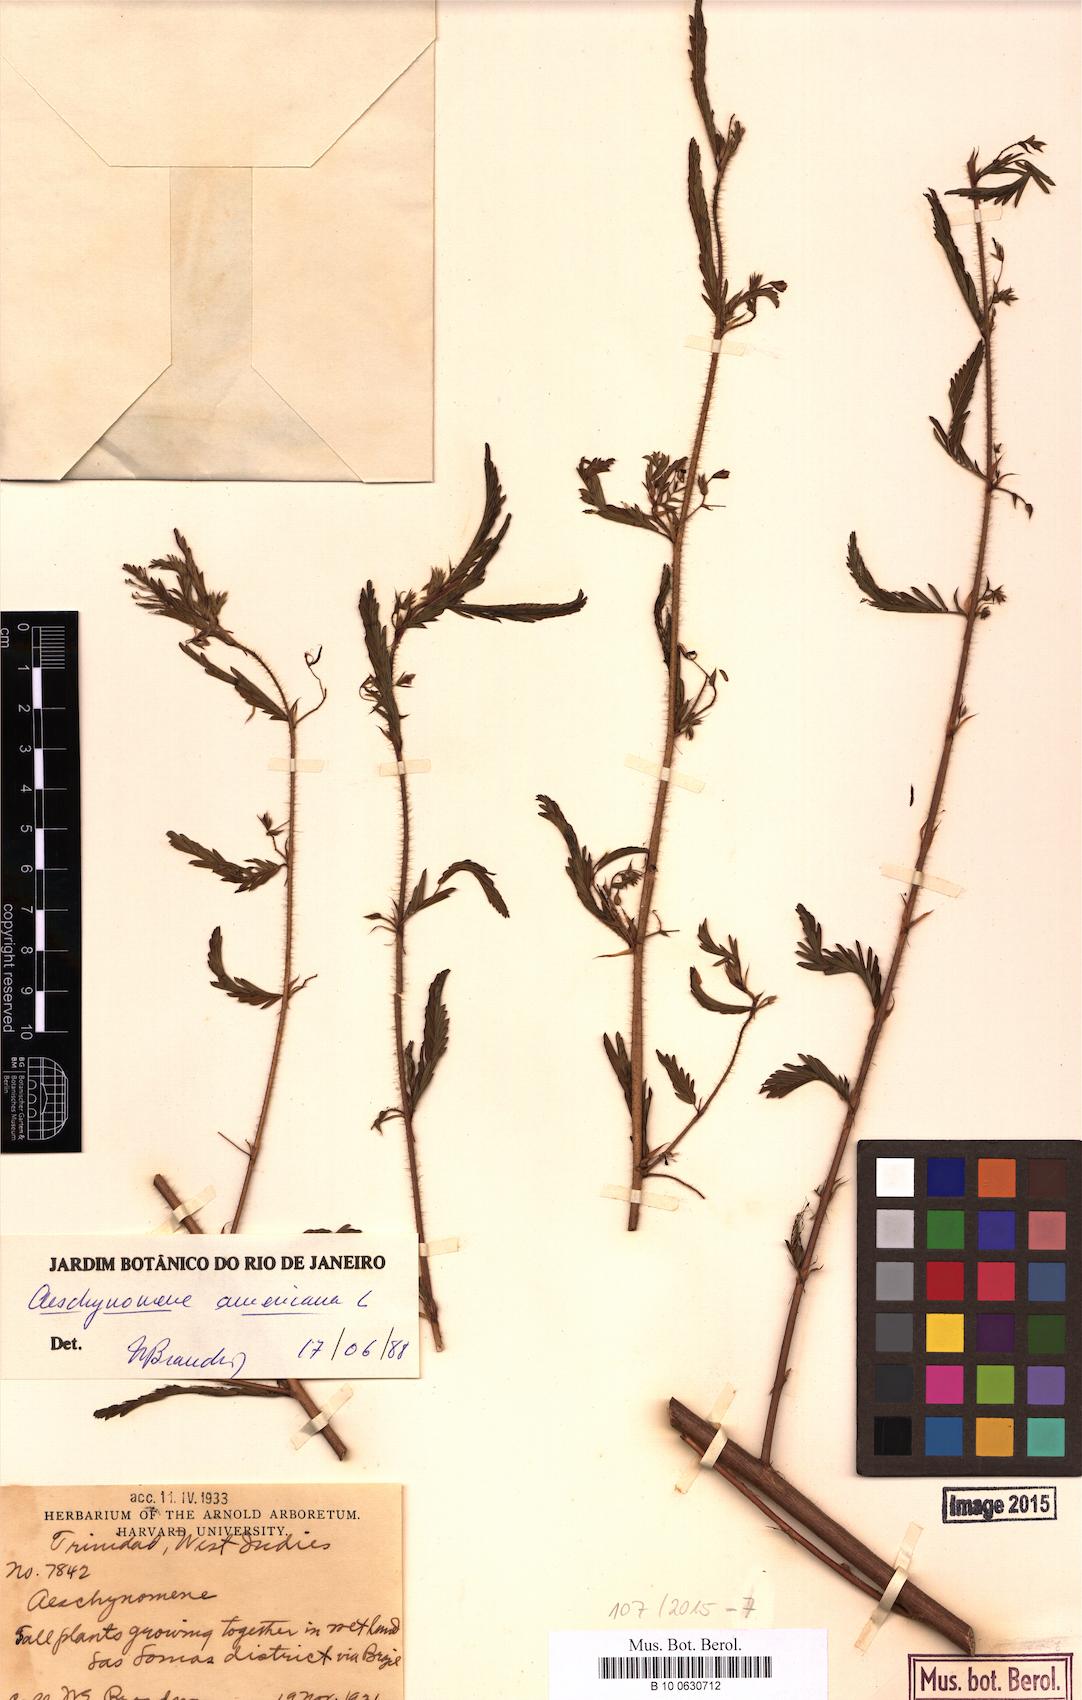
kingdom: Plantae
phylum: Tracheophyta
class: Magnoliopsida
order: Fabales
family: Fabaceae
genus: Aeschynomene
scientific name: Aeschynomene americana
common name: Joint-vetch
